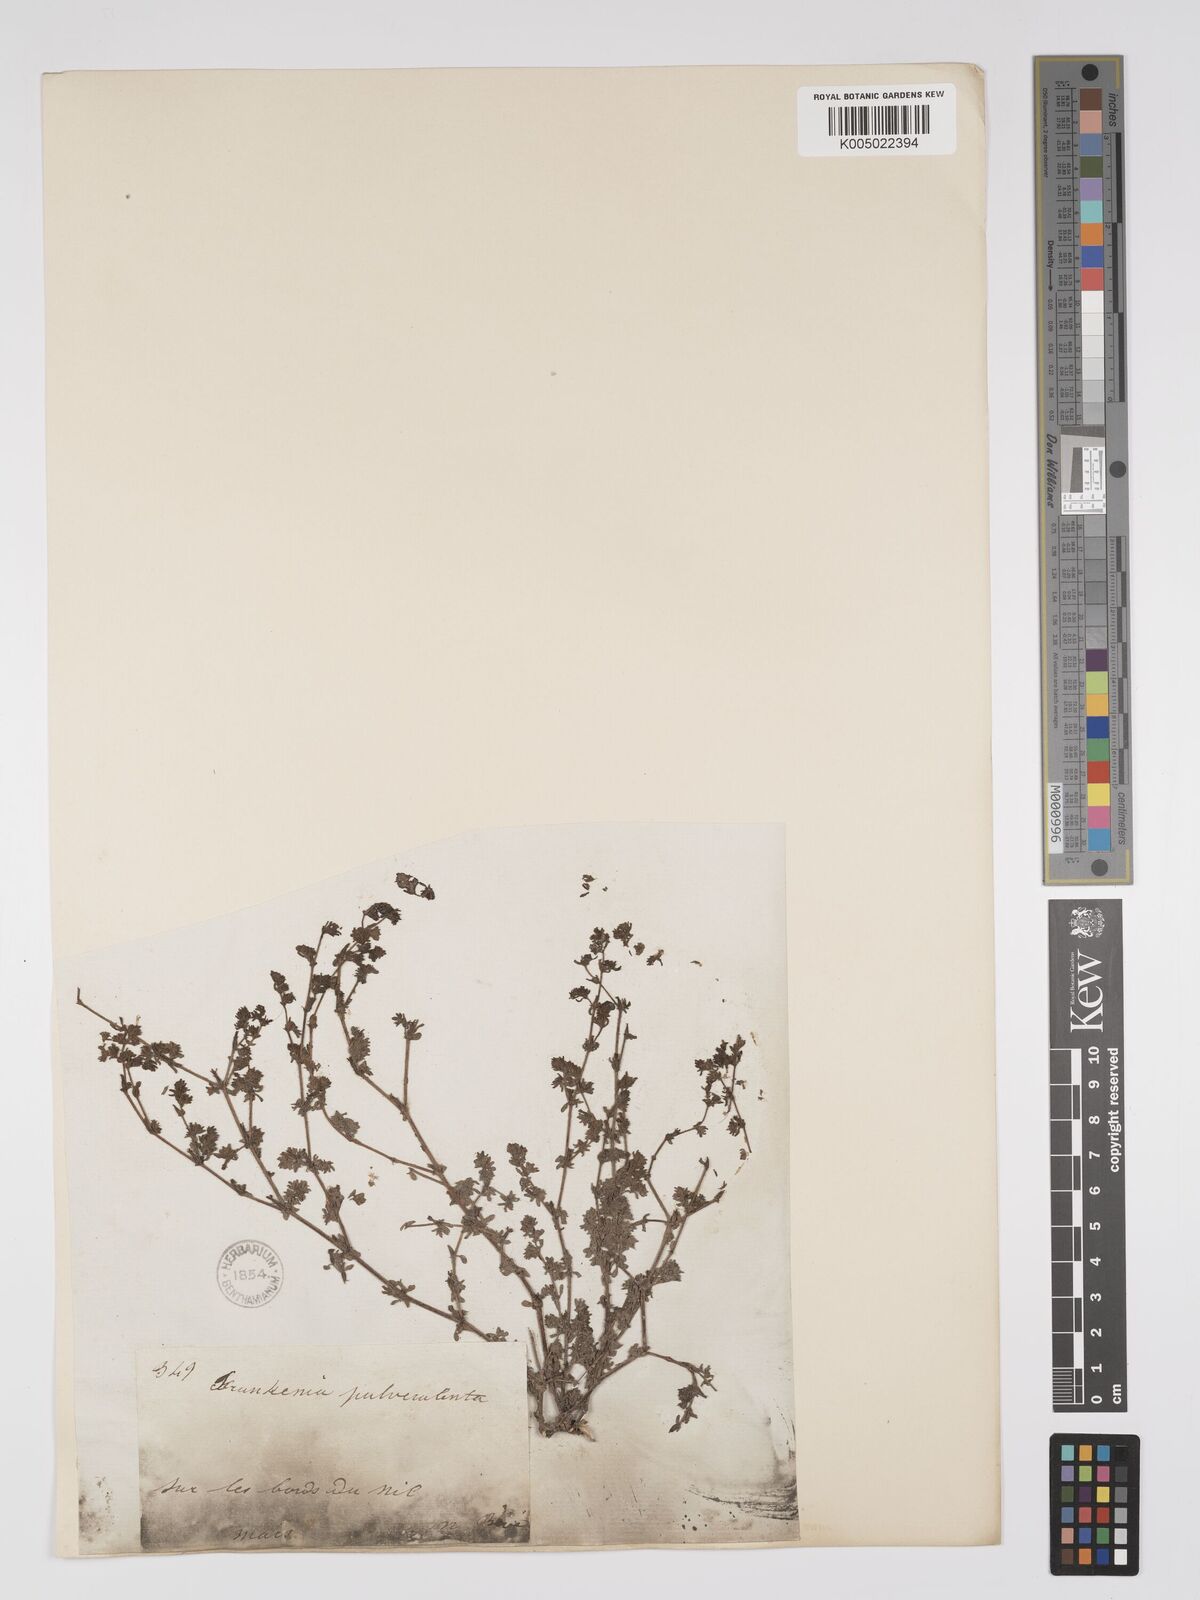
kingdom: Plantae
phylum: Tracheophyta
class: Magnoliopsida
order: Caryophyllales
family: Frankeniaceae
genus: Frankenia
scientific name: Frankenia pulverulenta
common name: European seaheath
